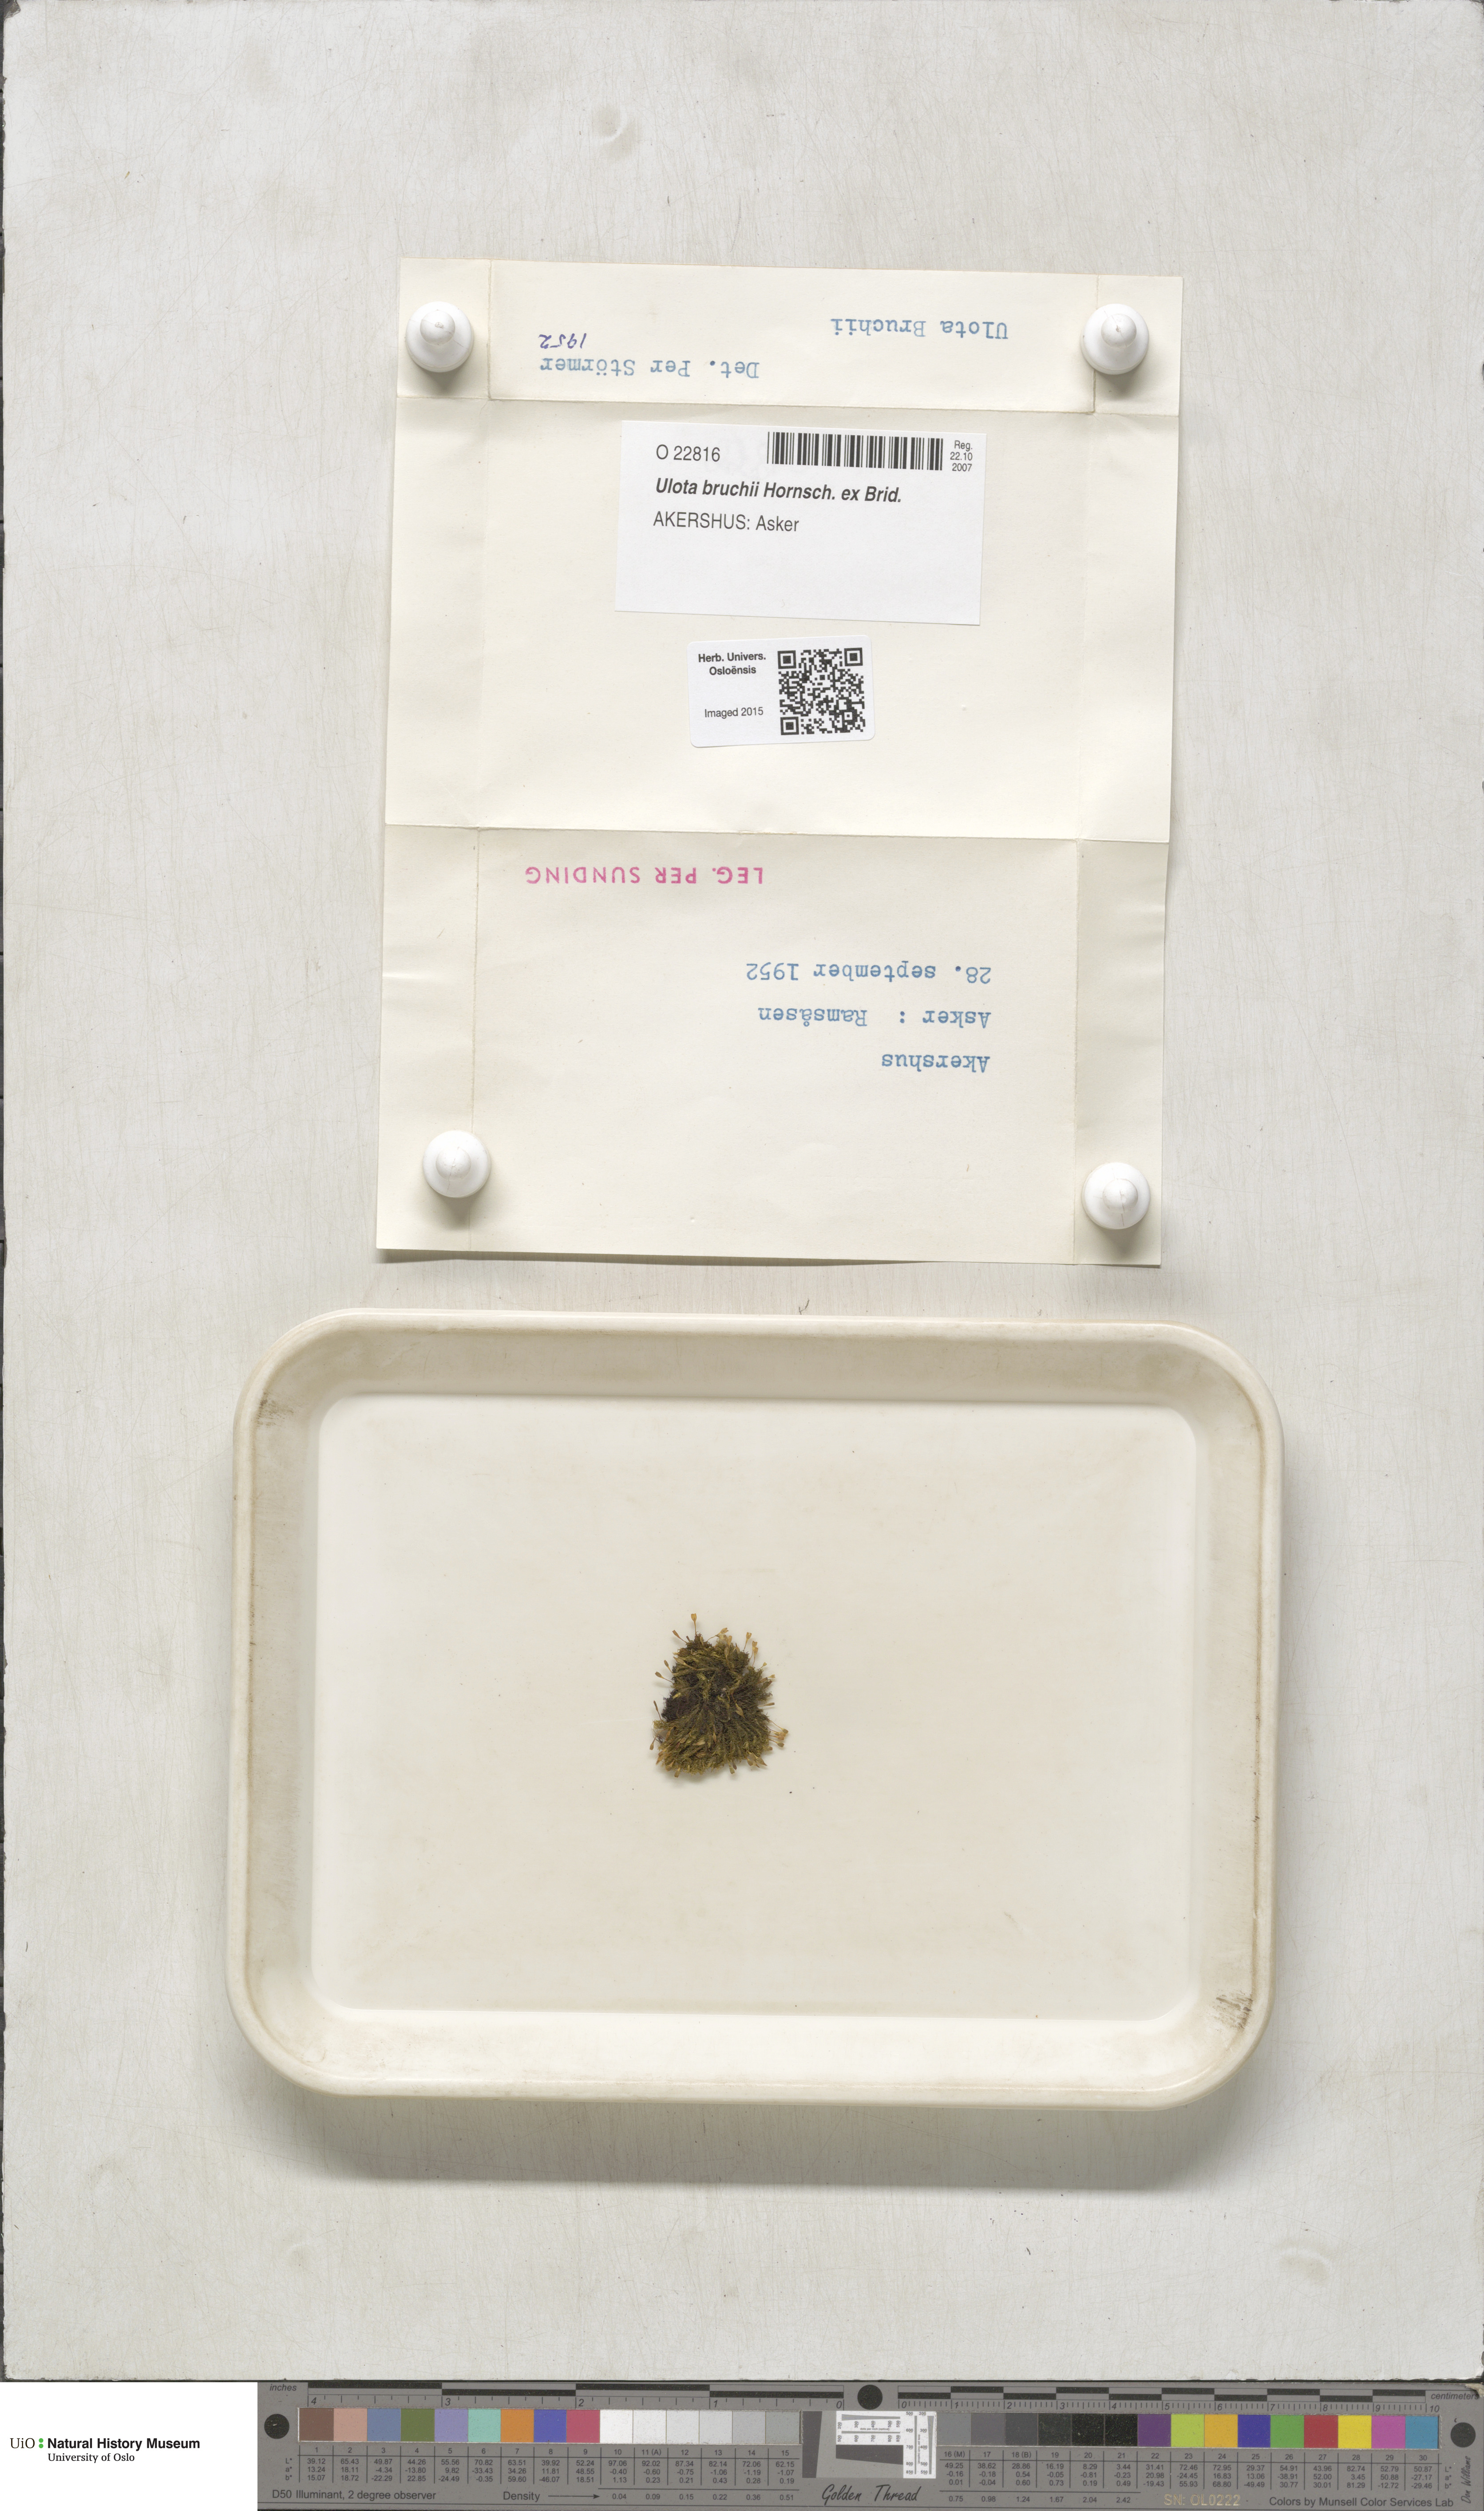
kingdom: Plantae
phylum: Bryophyta
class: Bryopsida
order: Orthotrichales
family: Orthotrichaceae
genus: Ulota
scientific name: Ulota bruchii
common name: Bruch's pincushion
